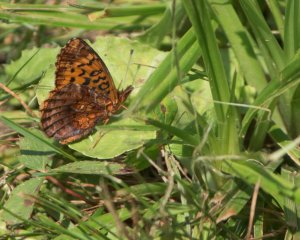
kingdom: Animalia
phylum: Arthropoda
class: Insecta
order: Lepidoptera
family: Nymphalidae
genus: Clossiana
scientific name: Clossiana toddi
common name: Meadow Fritillary
